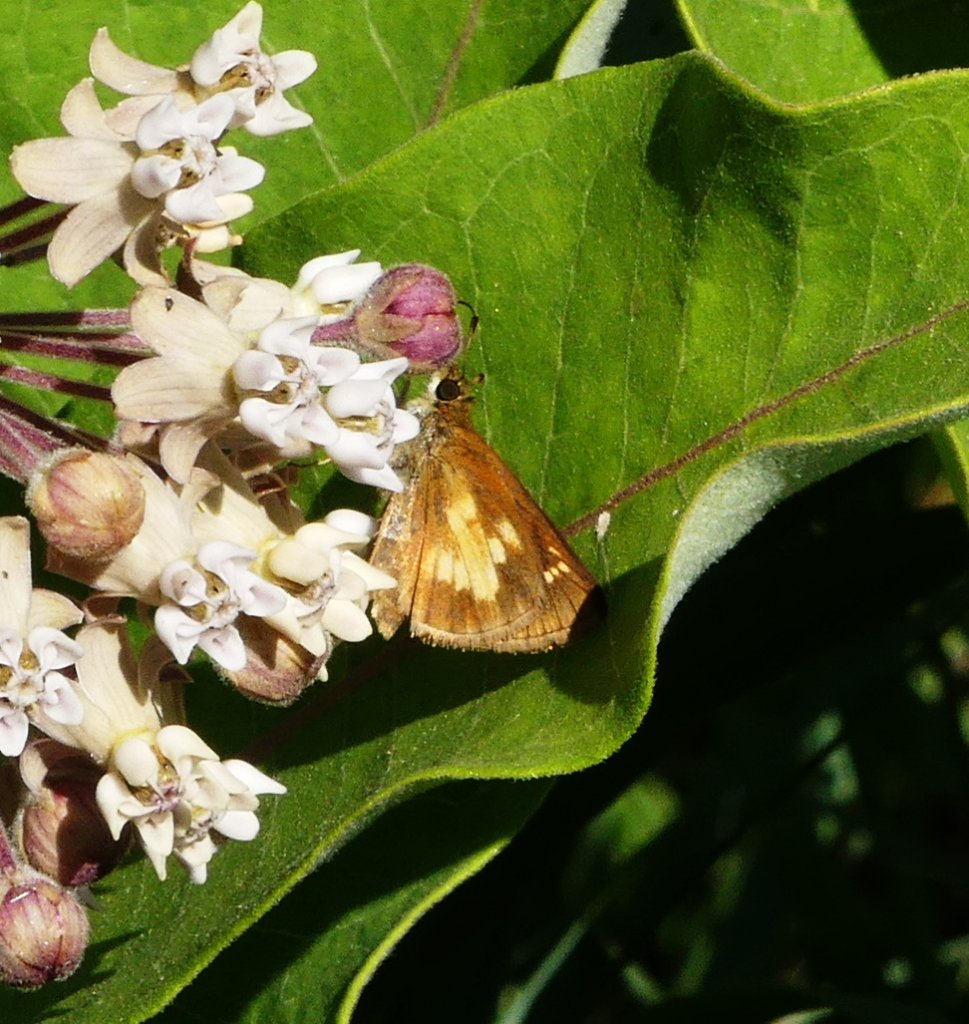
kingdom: Animalia
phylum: Arthropoda
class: Insecta
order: Lepidoptera
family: Hesperiidae
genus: Poanes
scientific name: Poanes massasoit
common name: Mulberry Wing
